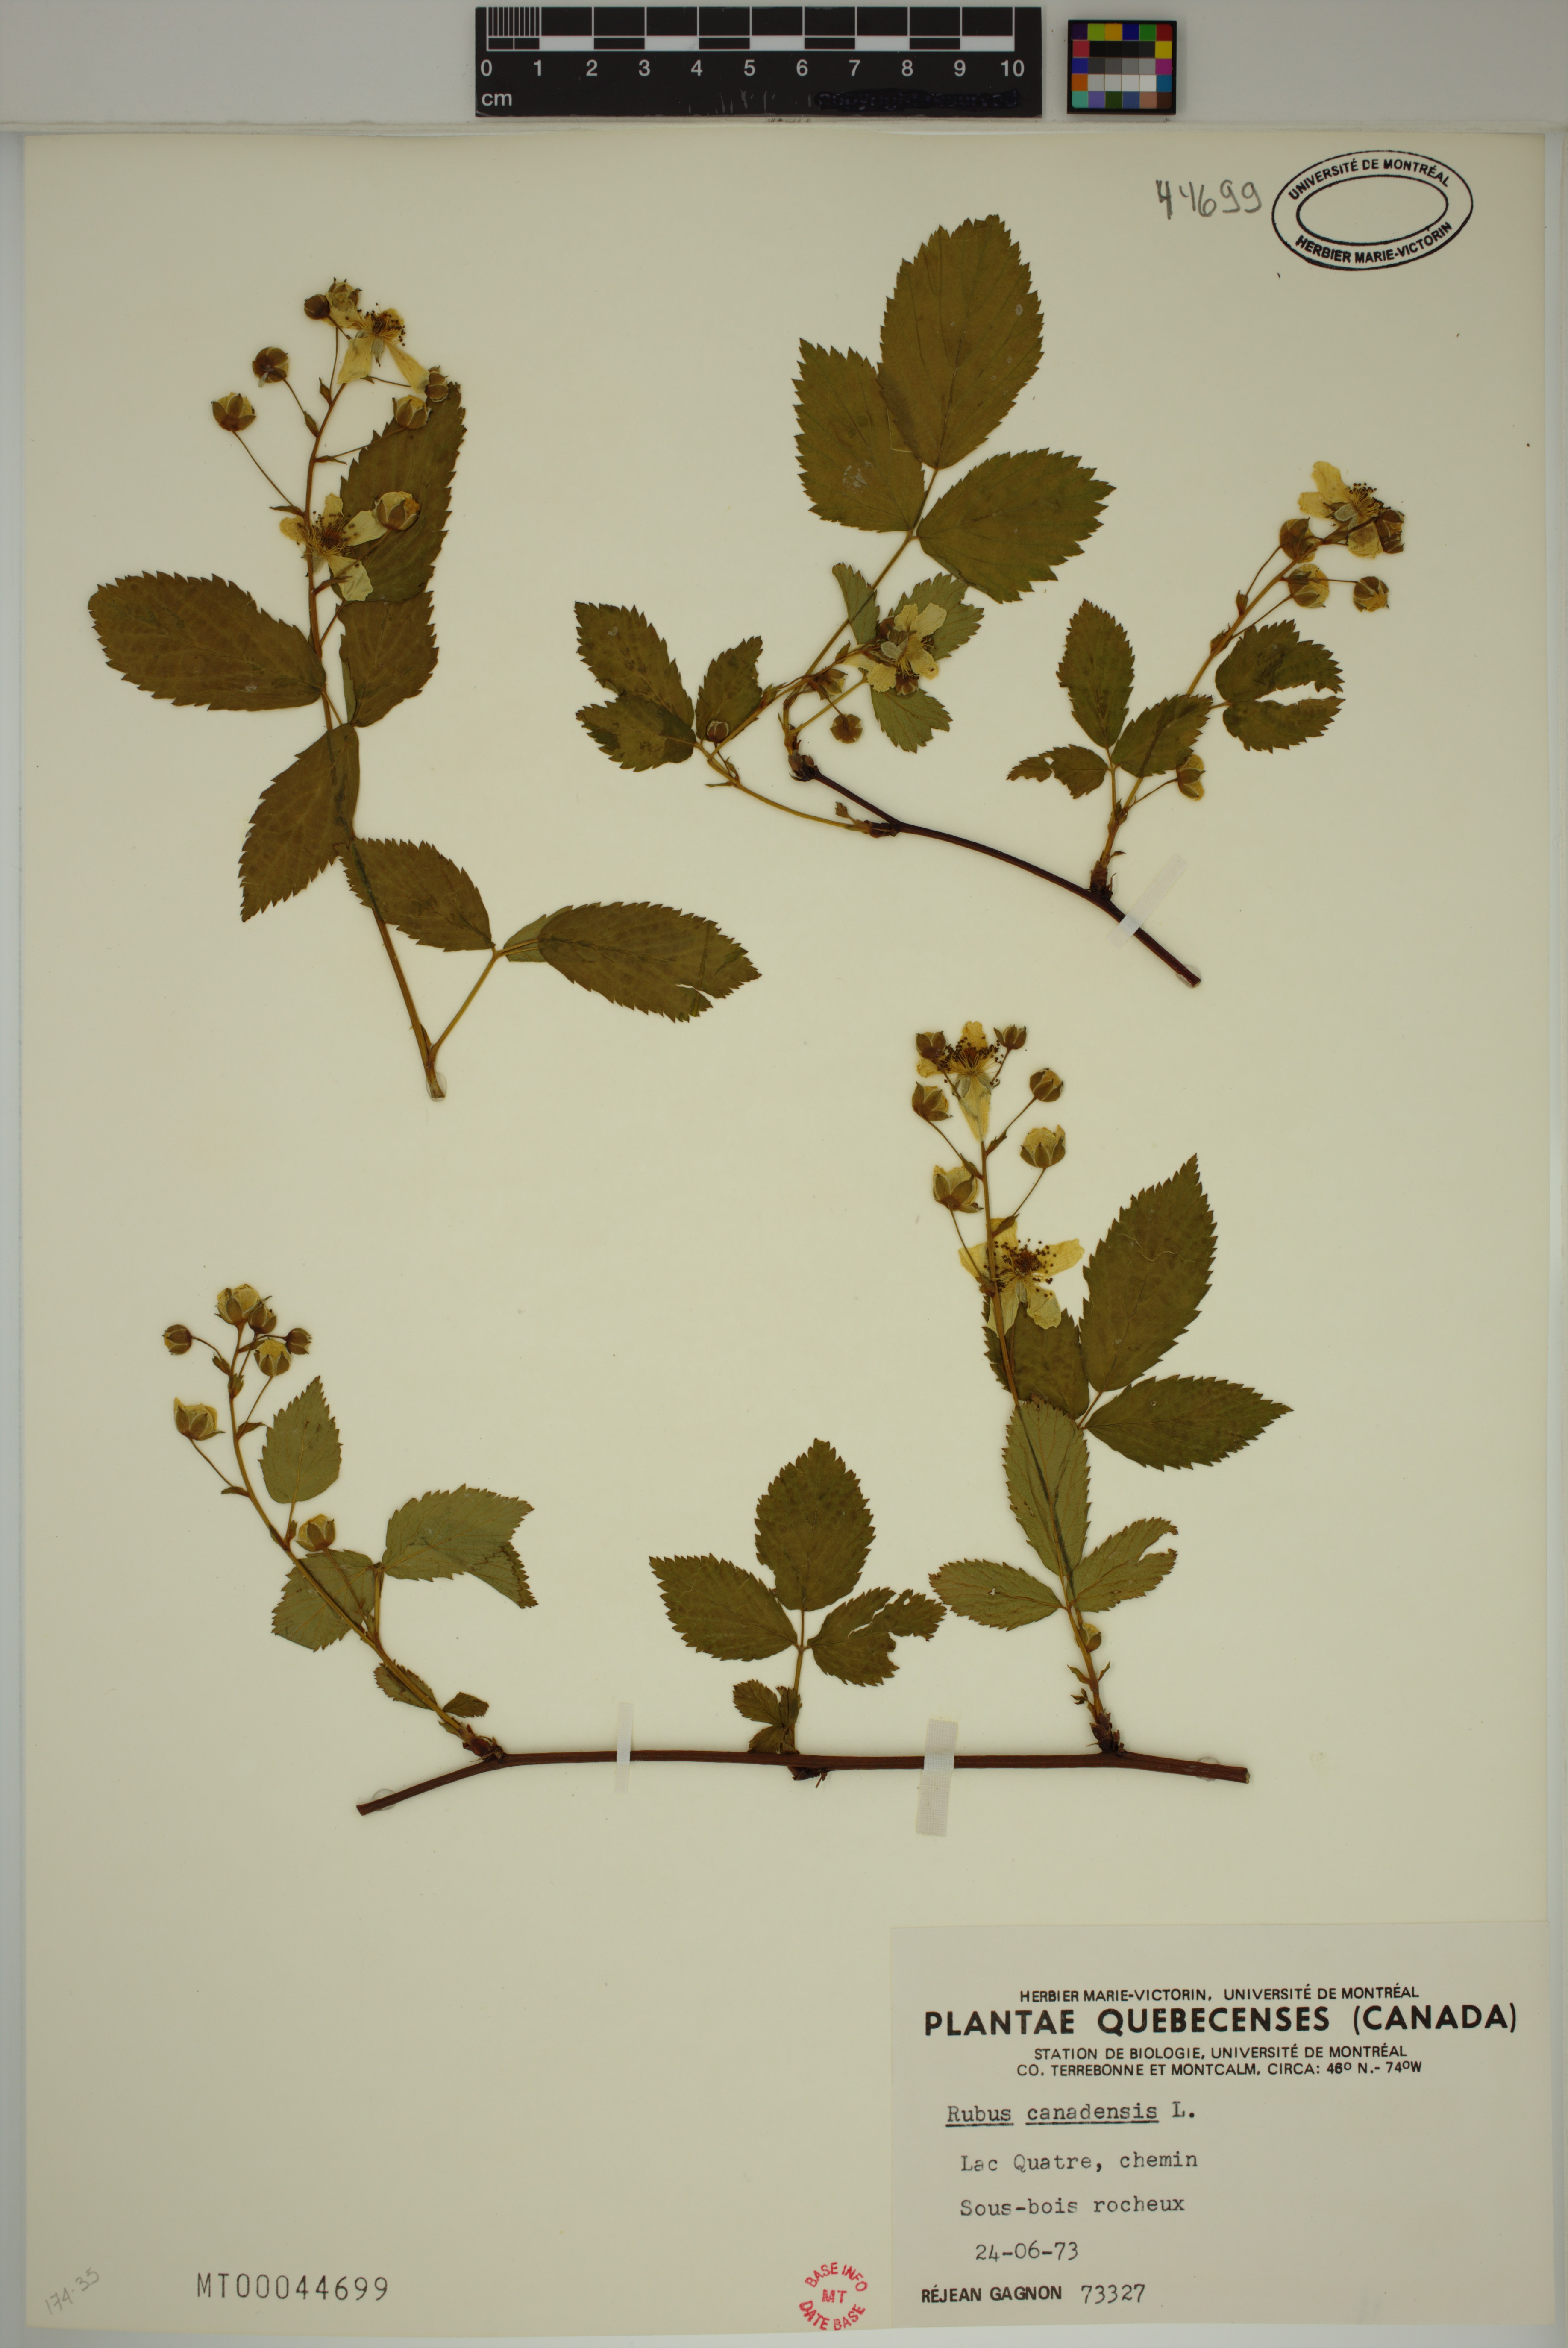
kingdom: Plantae
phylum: Tracheophyta
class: Magnoliopsida
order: Rosales
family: Rosaceae
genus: Rubus
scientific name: Rubus canadensis
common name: Smooth blackberry
